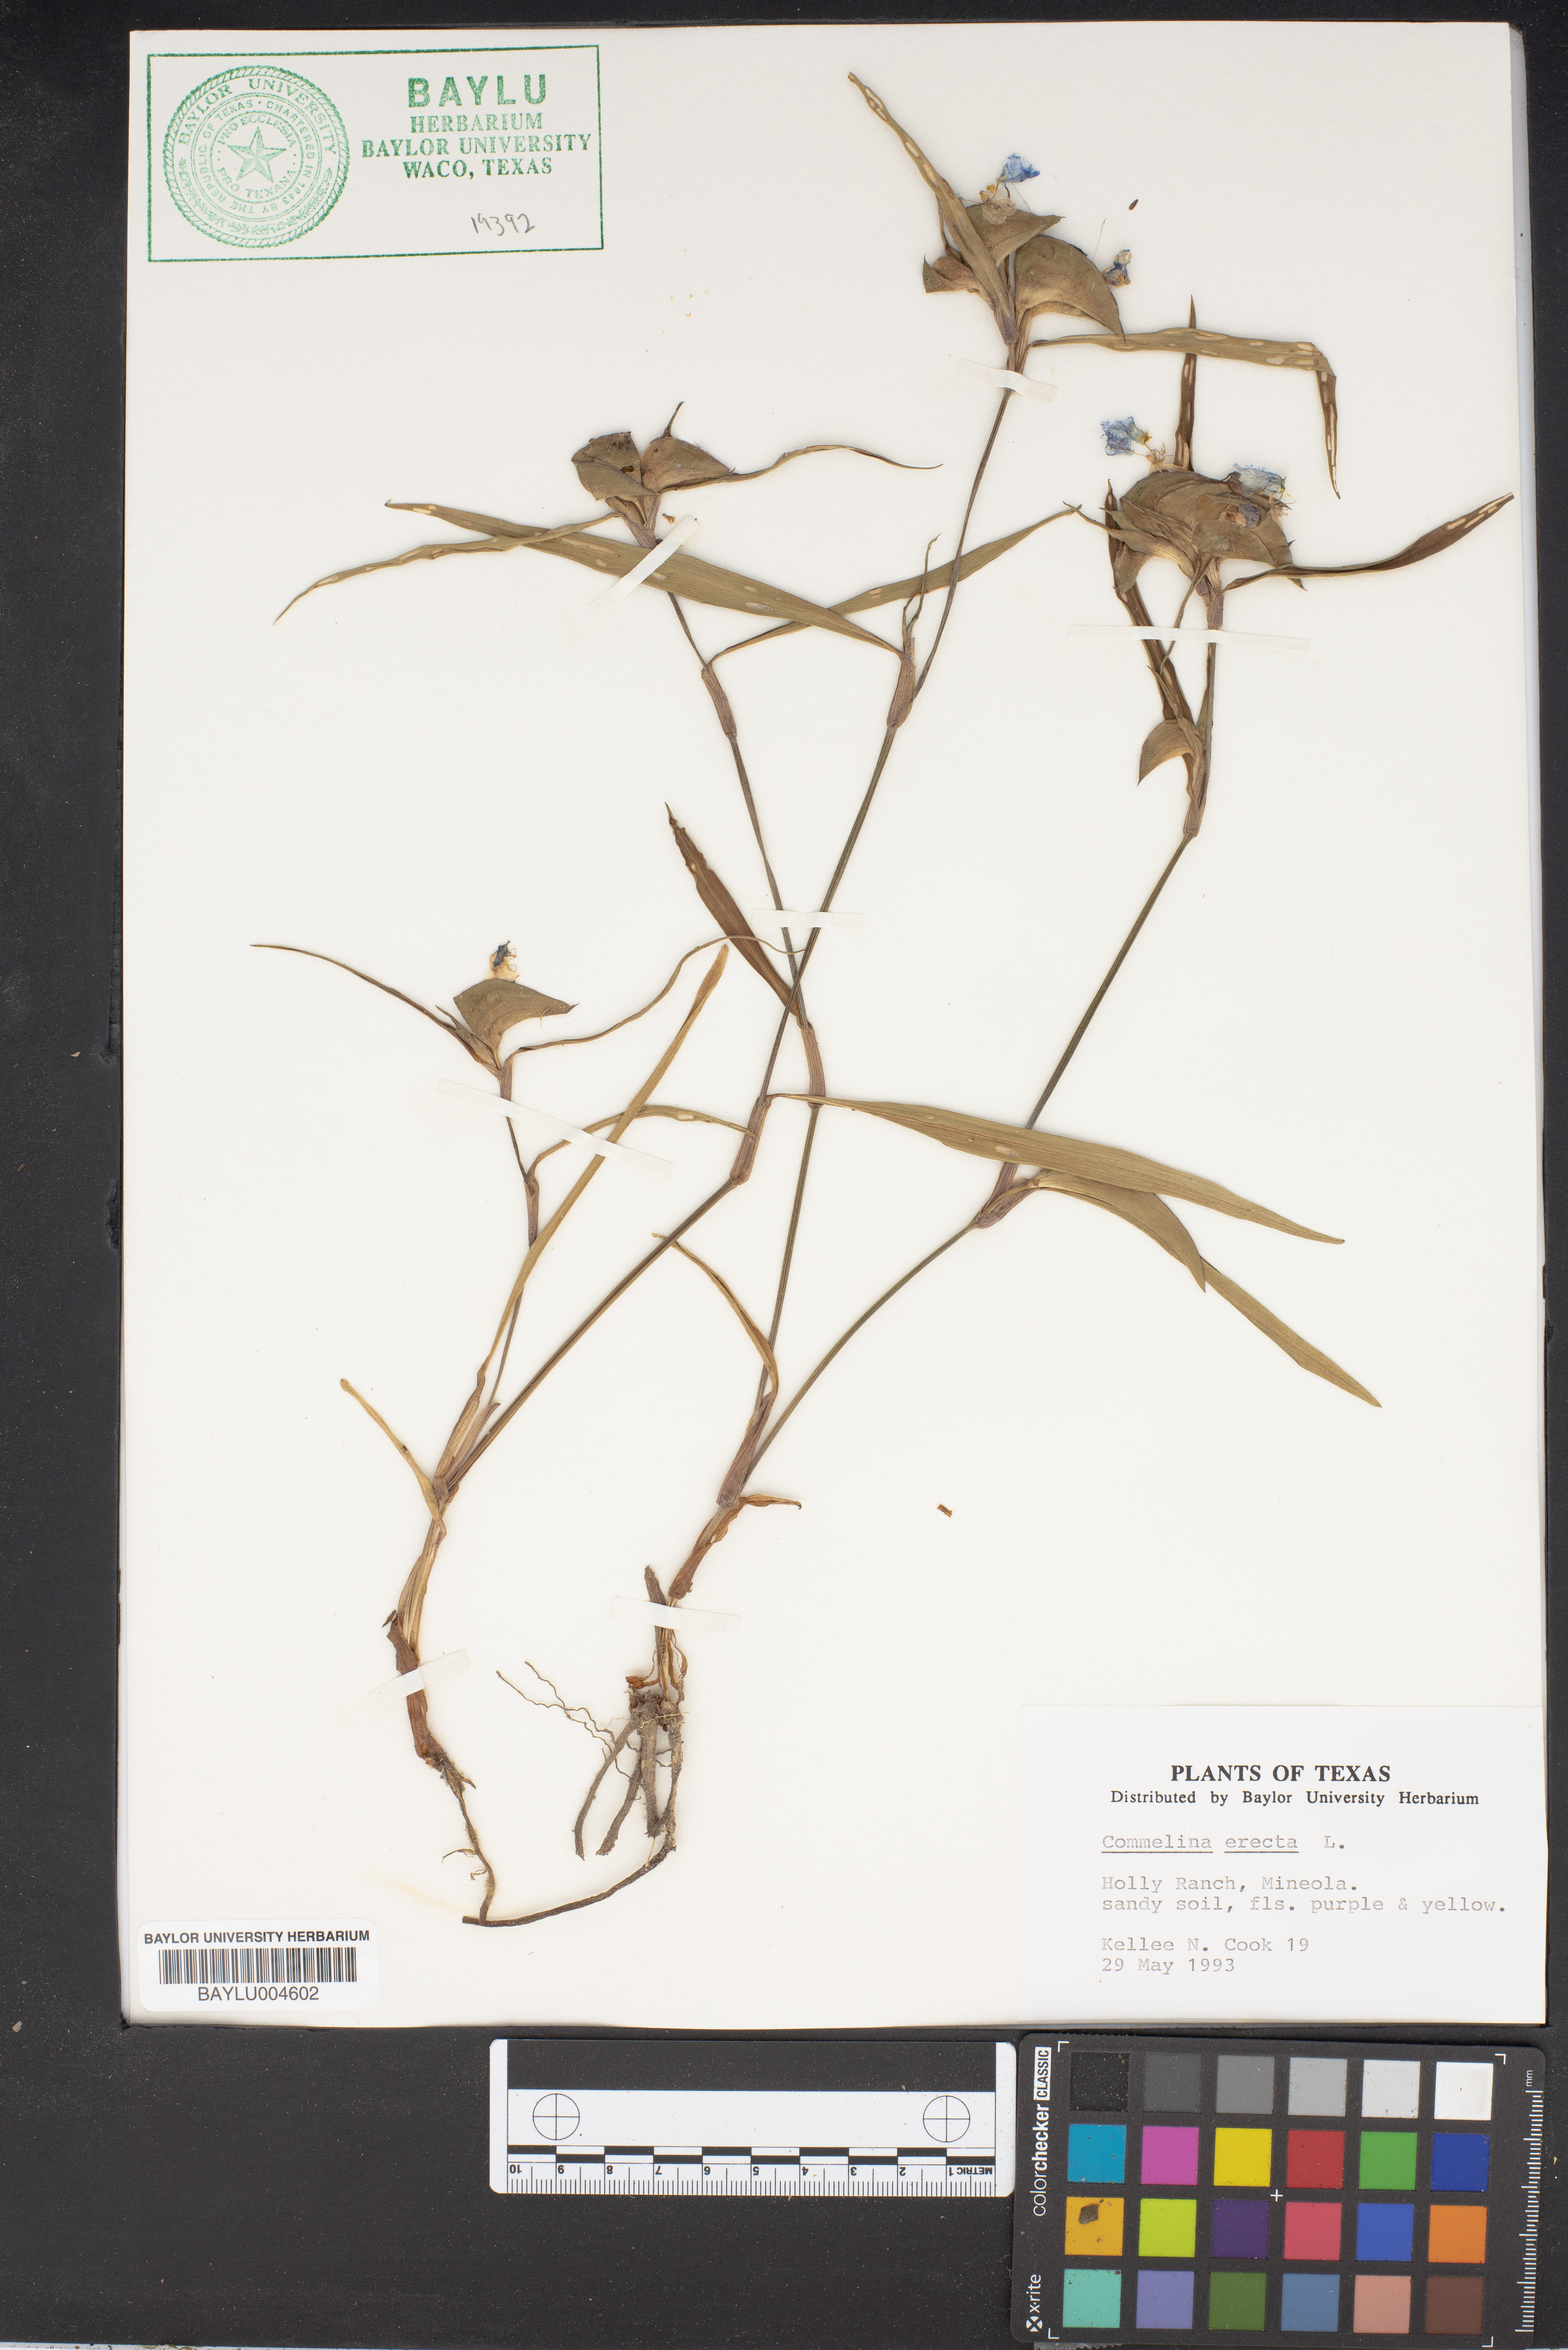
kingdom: Plantae
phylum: Tracheophyta
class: Liliopsida
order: Commelinales
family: Commelinaceae
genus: Commelina
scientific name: Commelina erecta
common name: Blousel blommetjie
